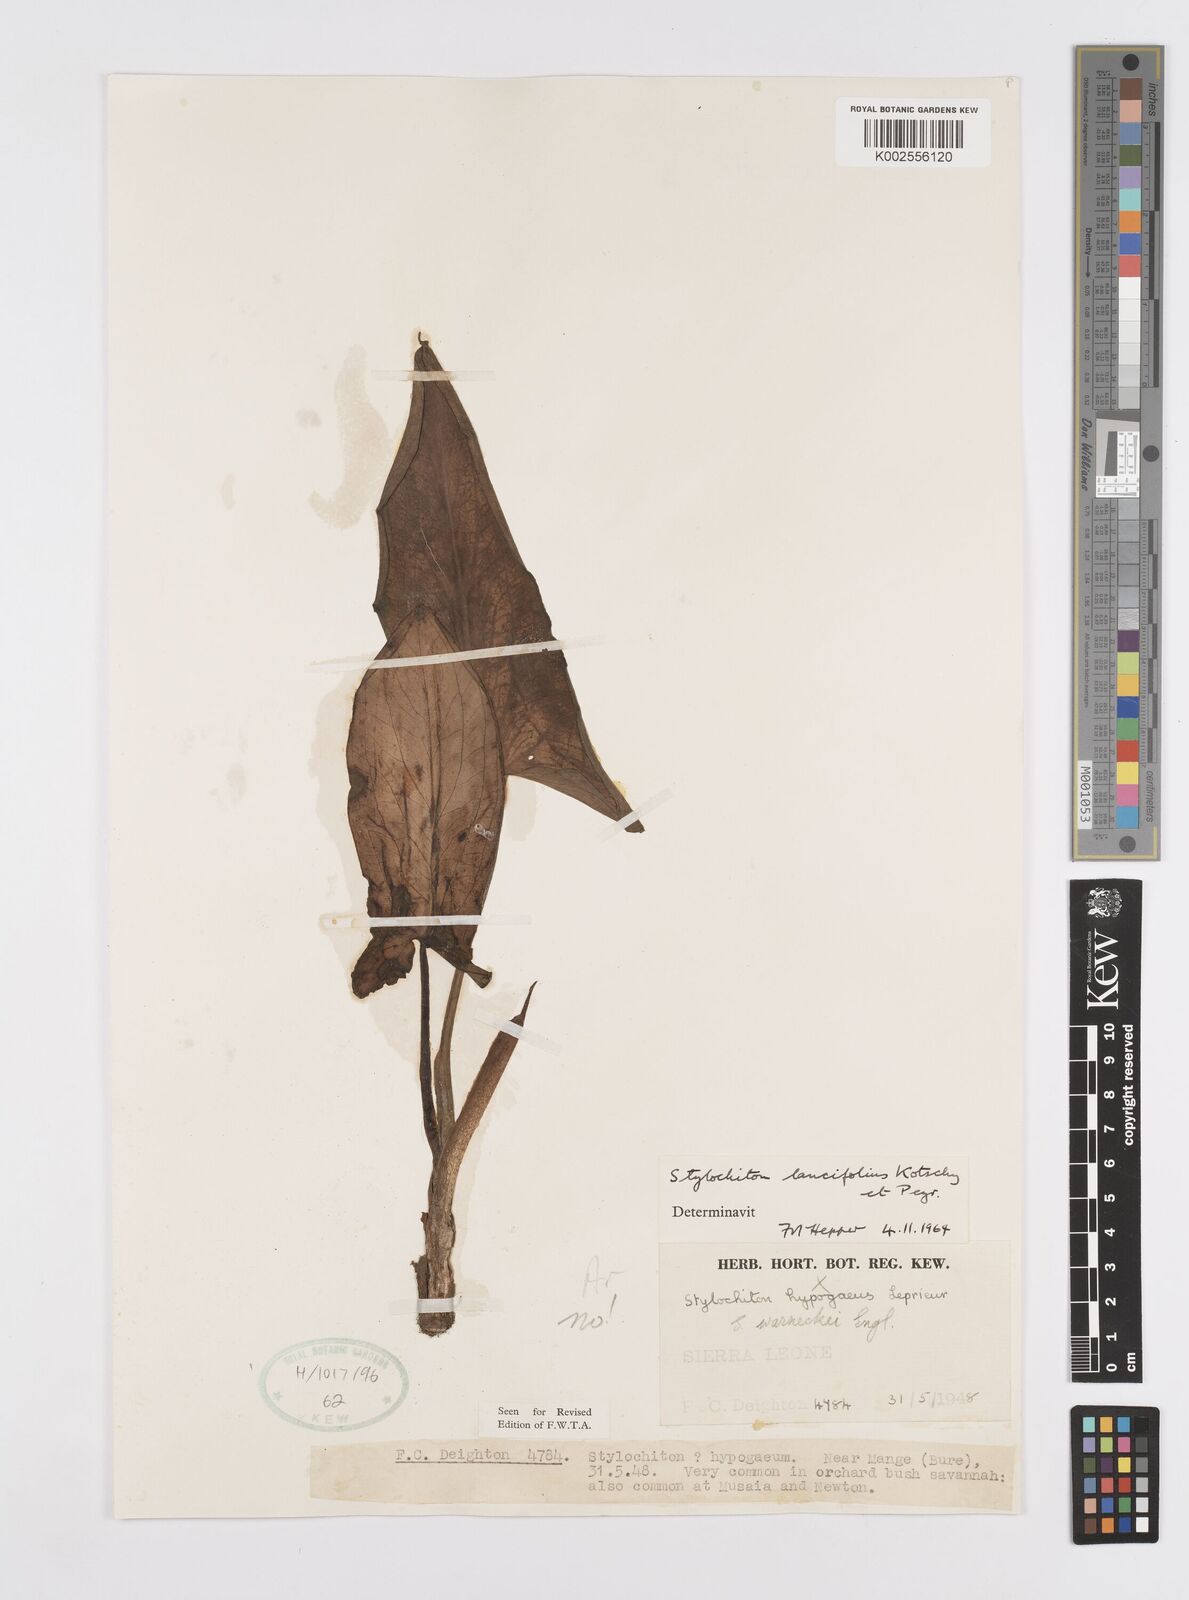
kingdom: Plantae
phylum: Tracheophyta
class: Liliopsida
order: Alismatales
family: Araceae
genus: Stylochaeton
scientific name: Stylochaeton lancifolium
